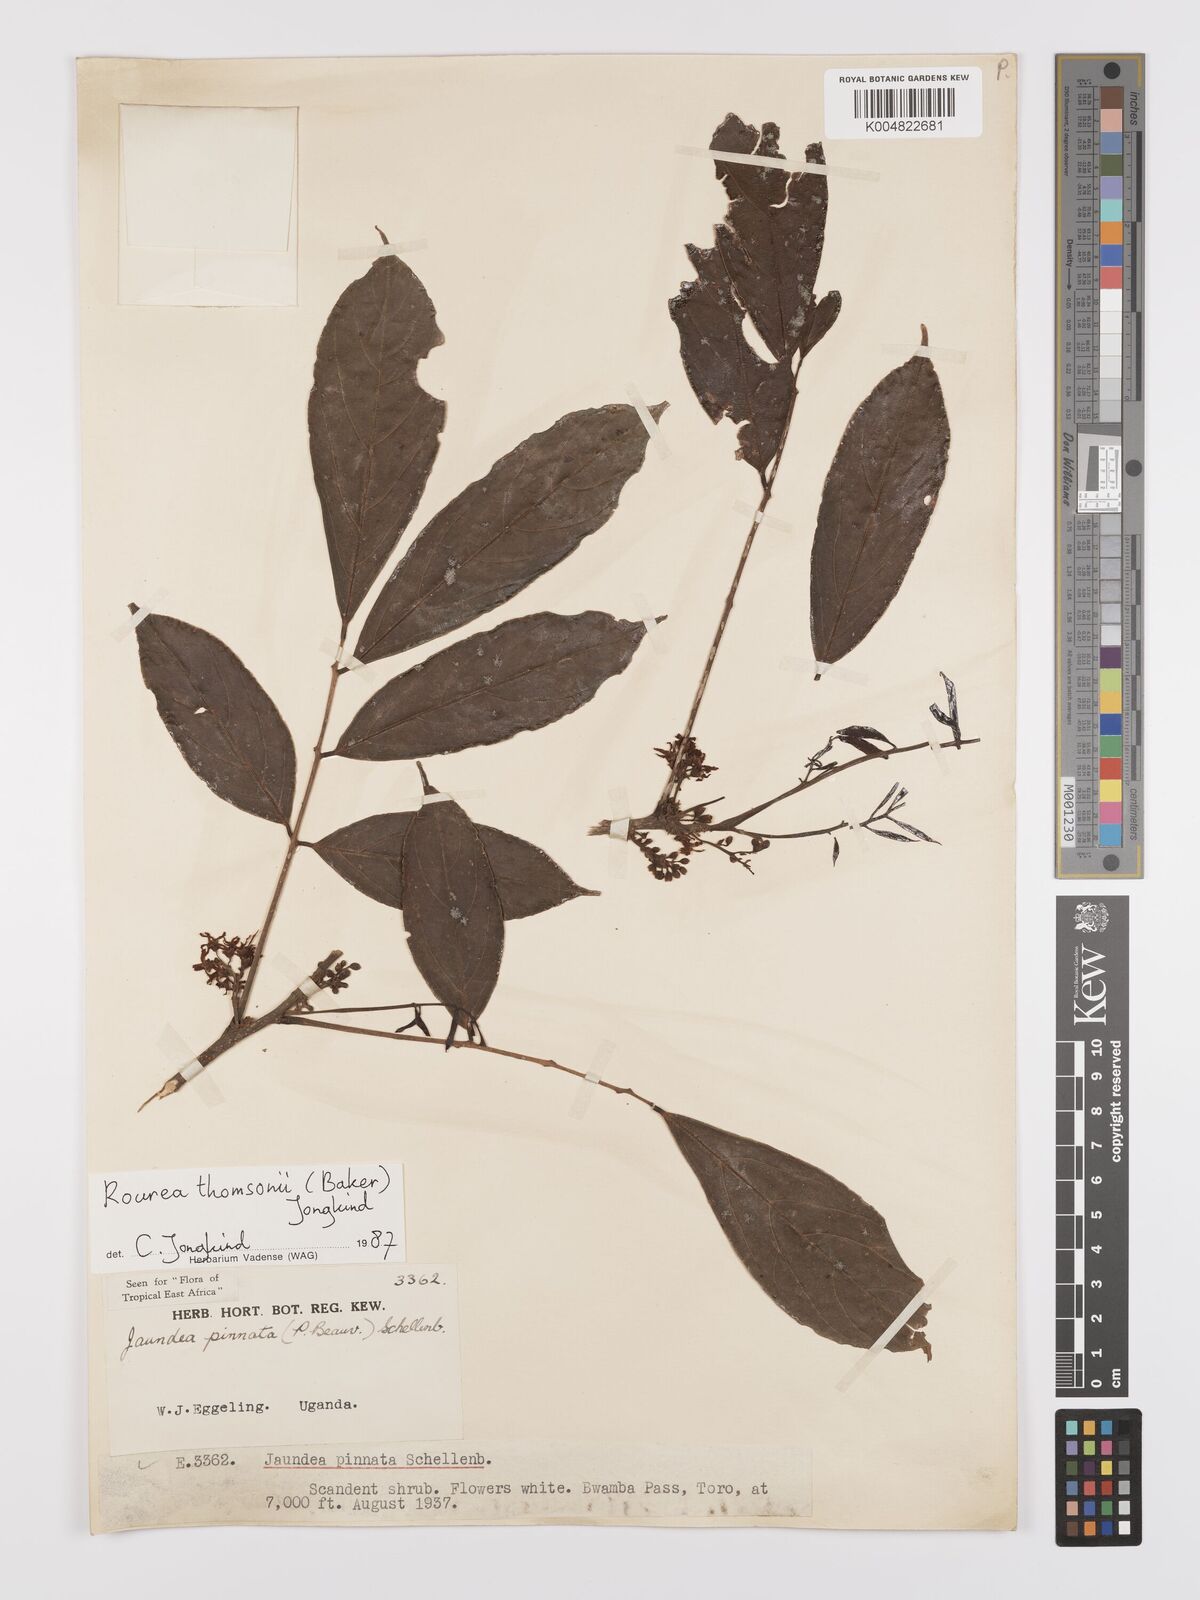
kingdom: Plantae
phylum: Tracheophyta
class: Magnoliopsida
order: Oxalidales
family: Connaraceae
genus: Rourea
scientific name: Rourea pinnata
